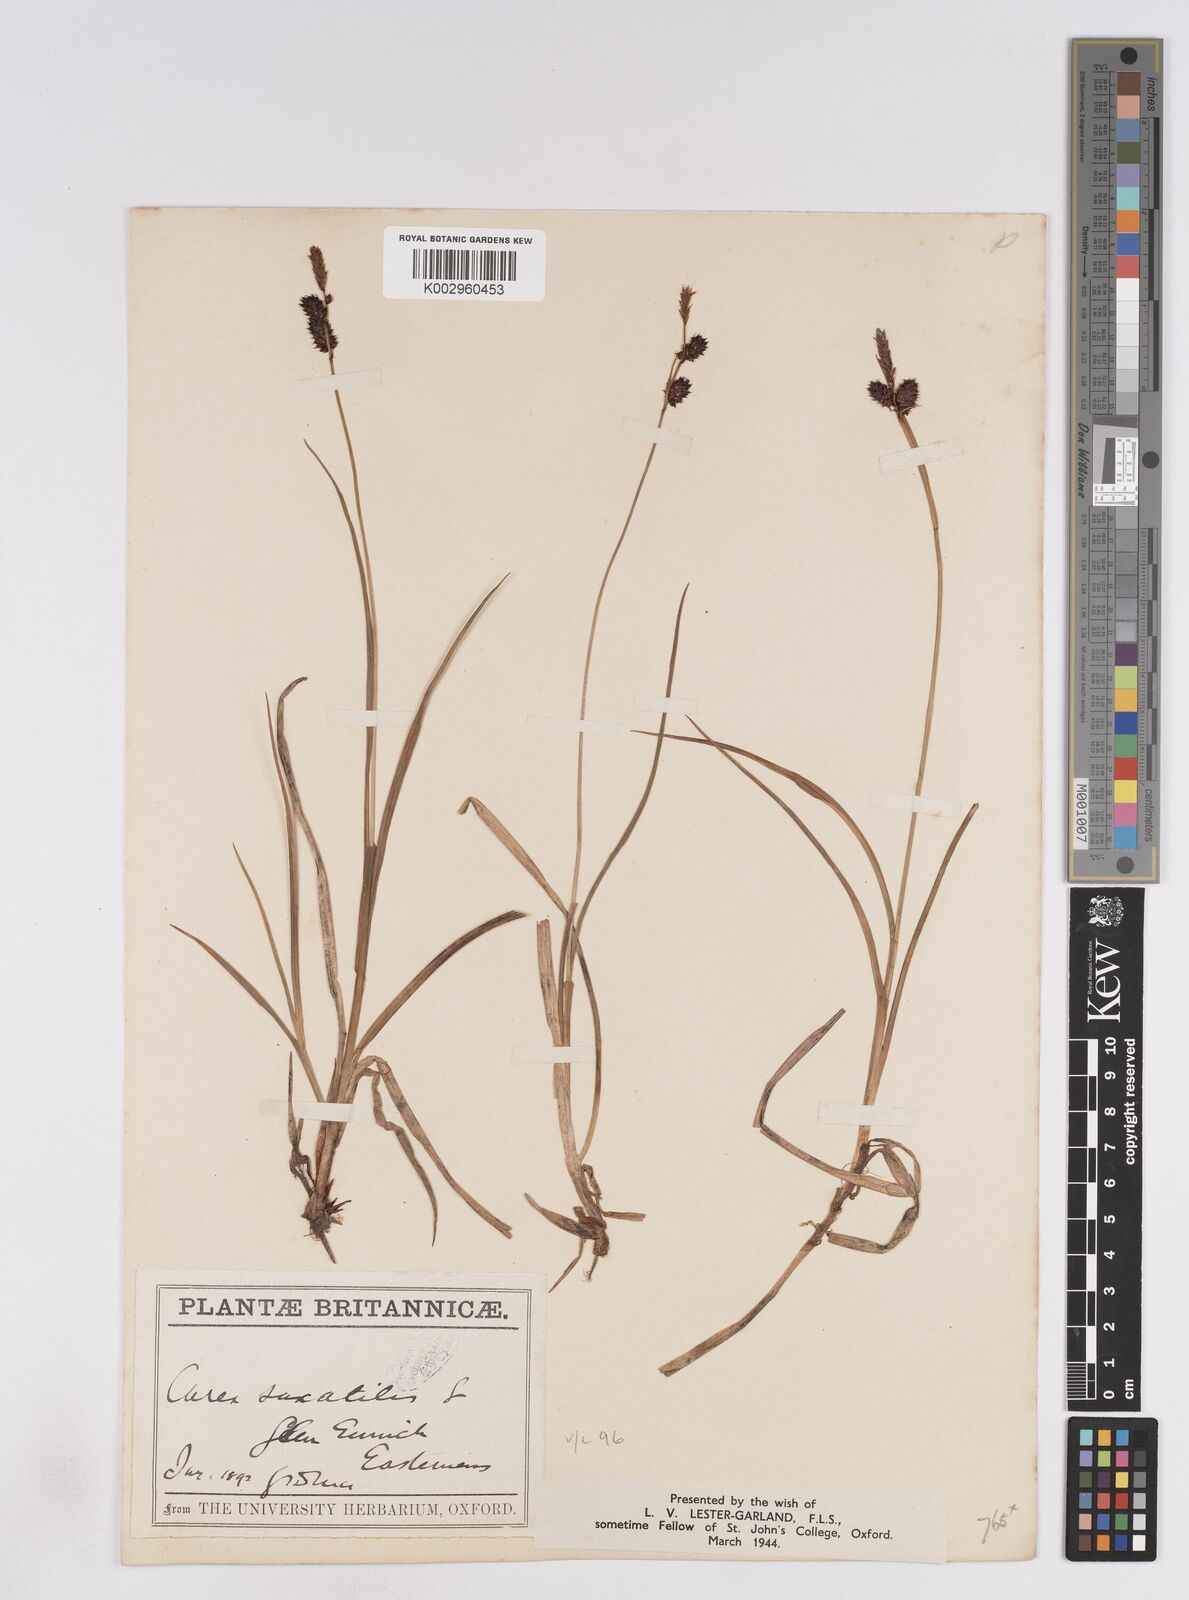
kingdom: Plantae
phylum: Tracheophyta
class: Liliopsida
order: Poales
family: Cyperaceae
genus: Carex
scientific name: Carex saxatilis
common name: Russet sedge
